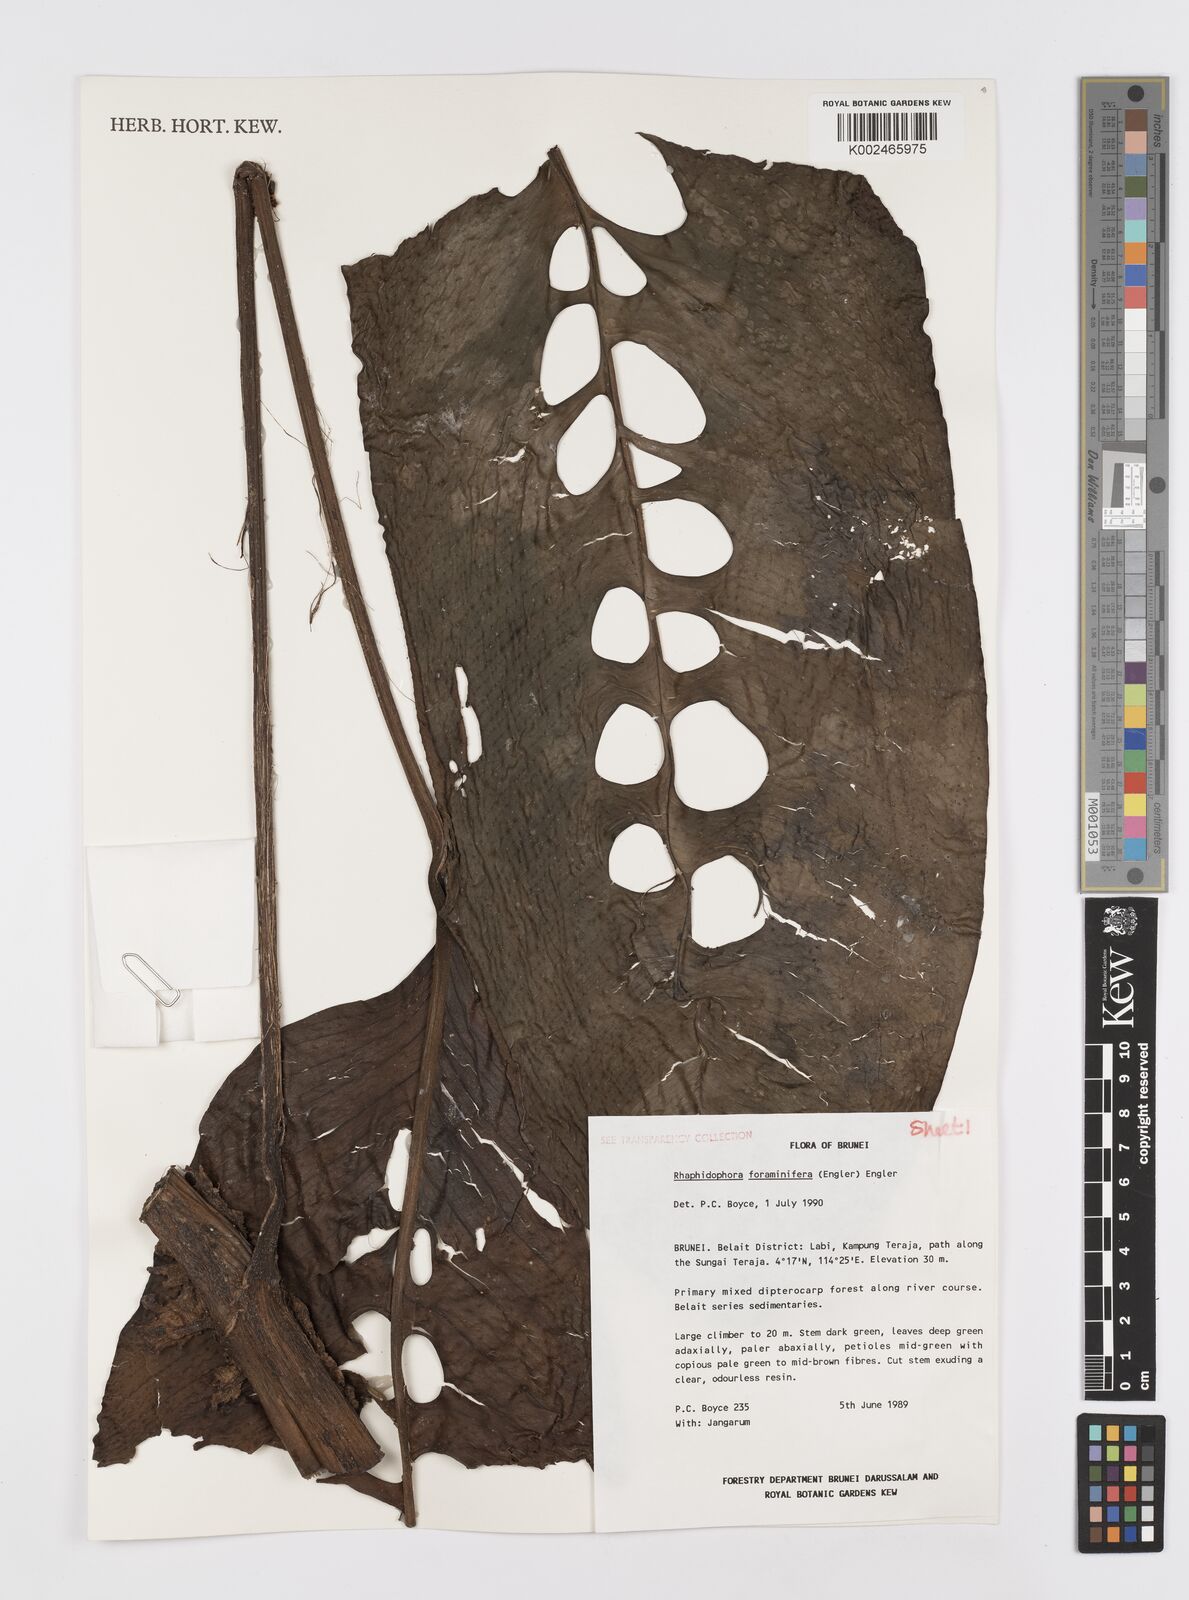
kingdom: Plantae
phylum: Tracheophyta
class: Liliopsida
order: Alismatales
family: Araceae
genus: Rhaphidophora
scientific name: Rhaphidophora foraminifera
